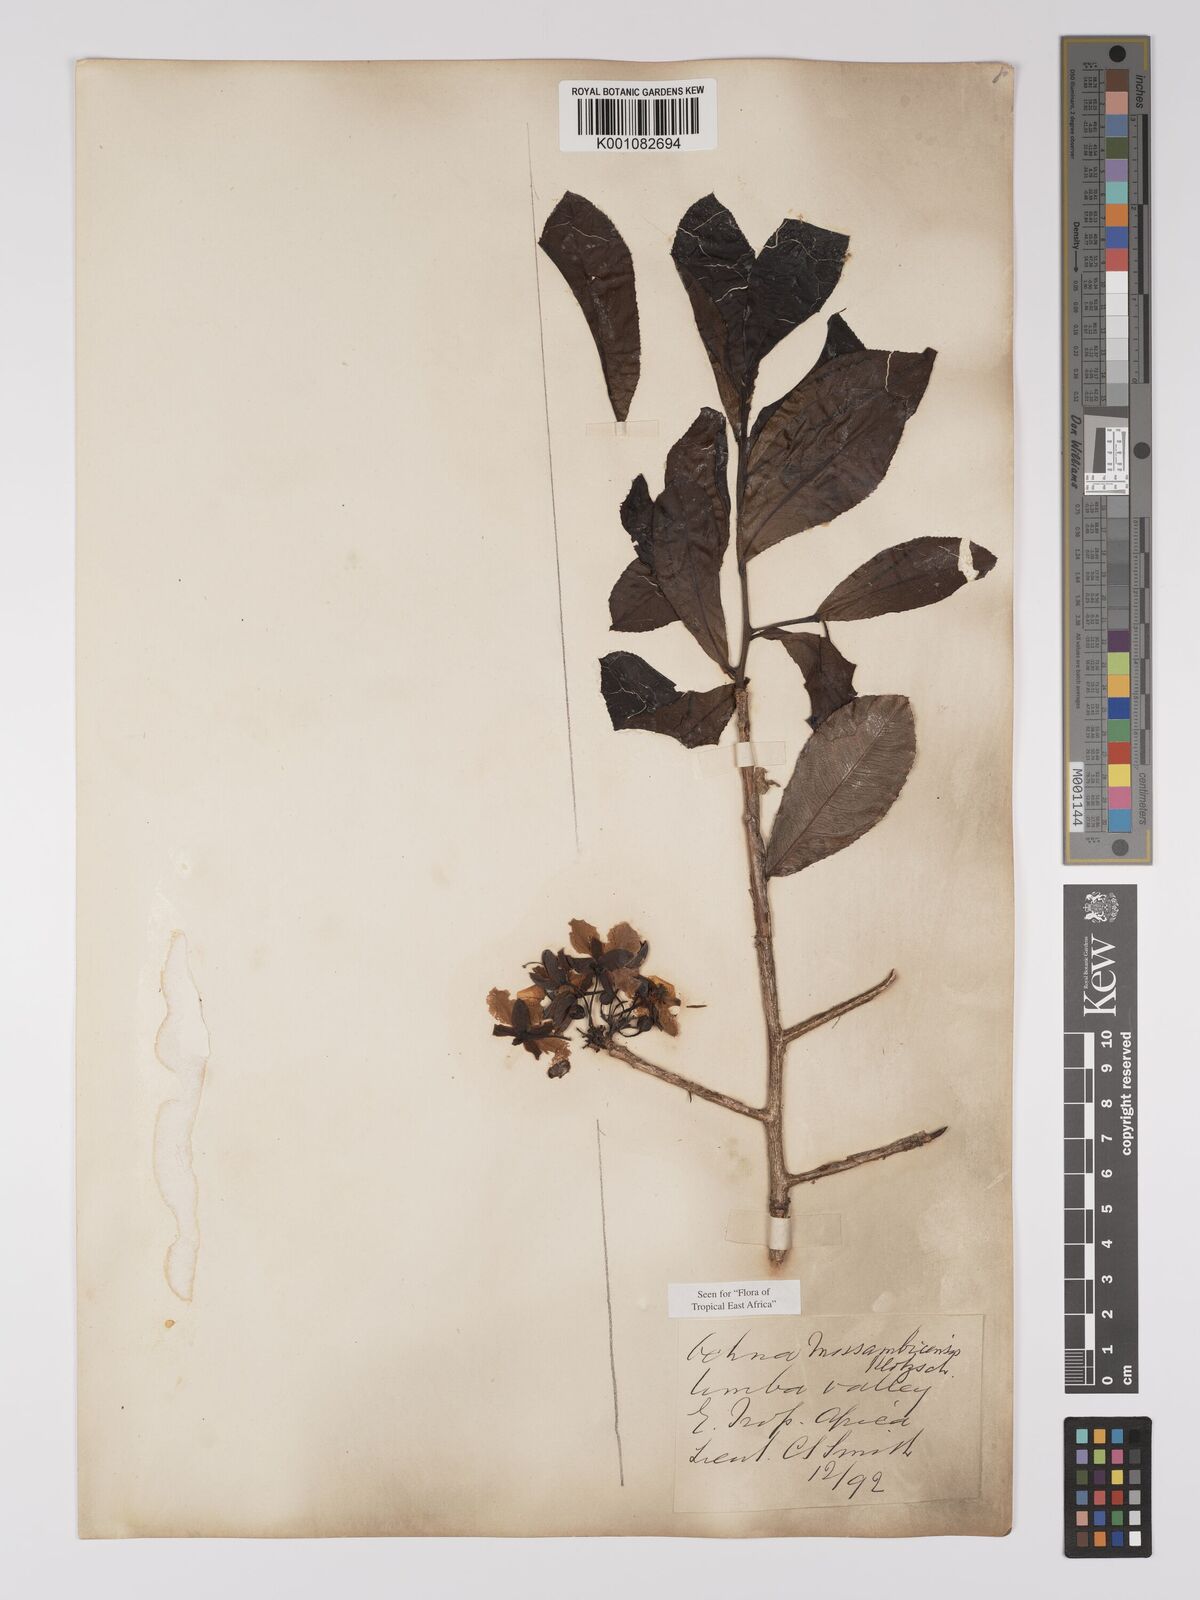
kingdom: Plantae
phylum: Tracheophyta
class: Magnoliopsida
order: Malpighiales
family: Ochnaceae
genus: Ochna
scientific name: Ochna atropurpurea
